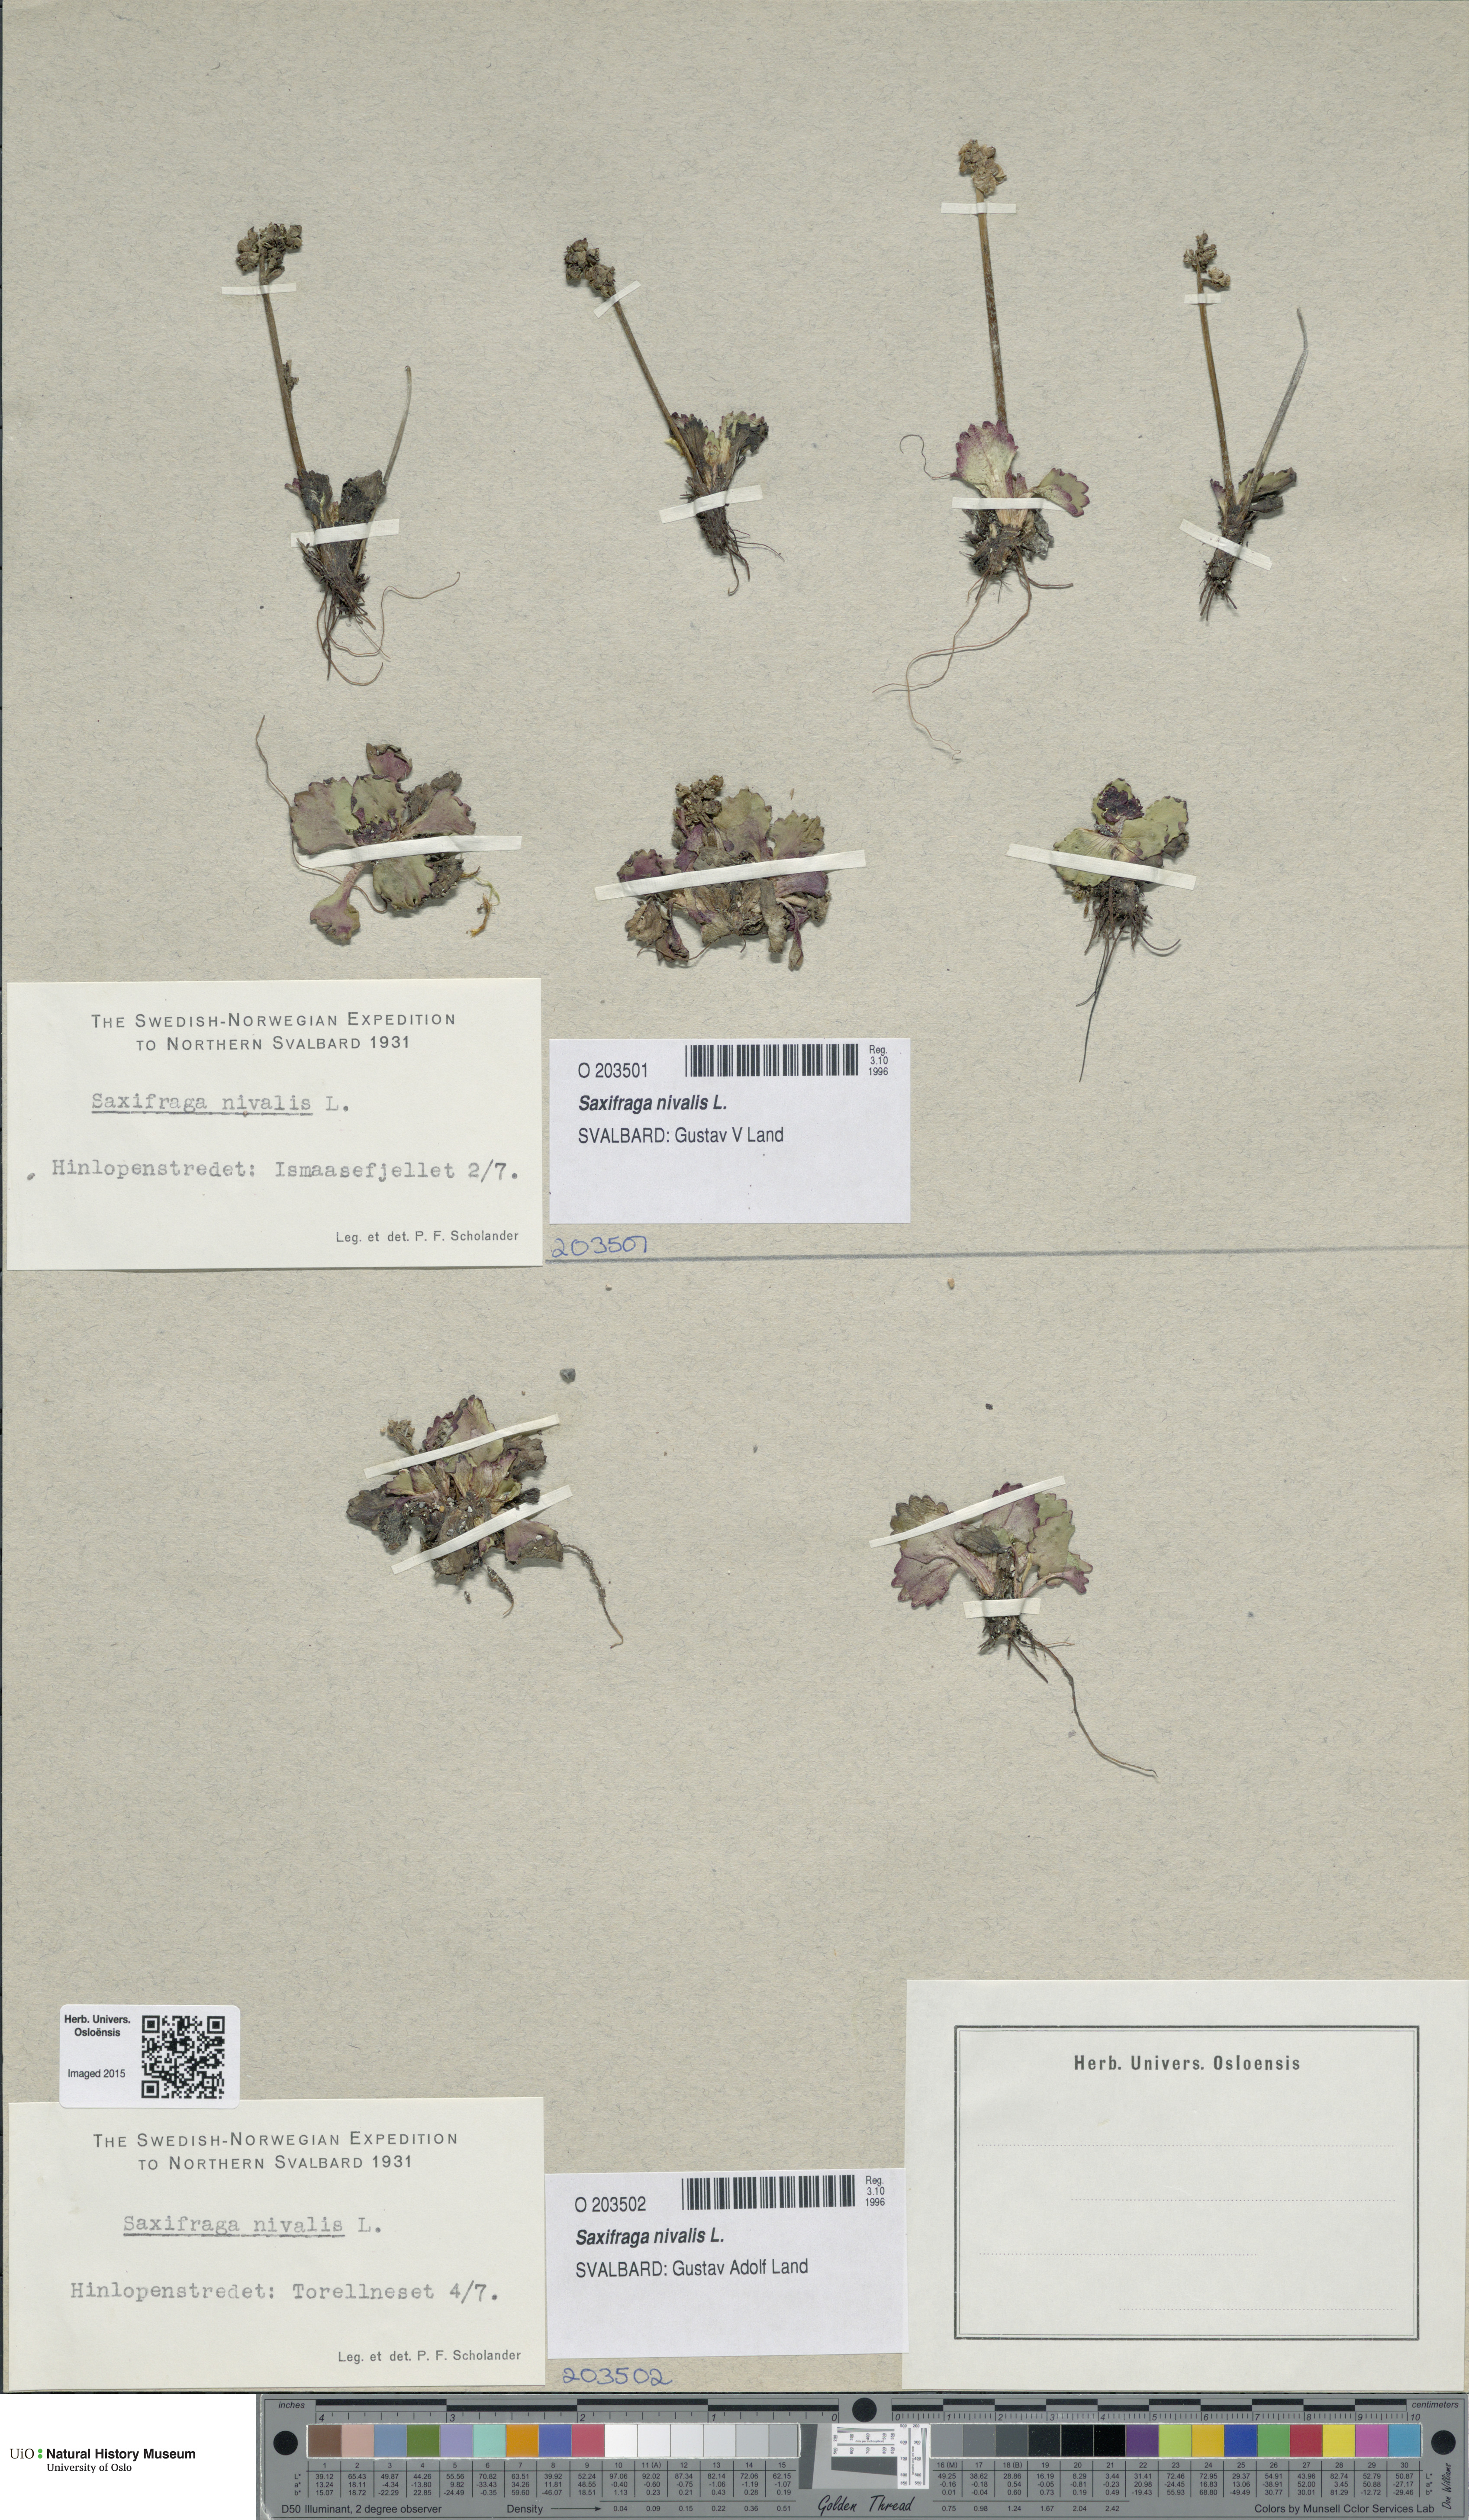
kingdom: Plantae
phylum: Tracheophyta
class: Magnoliopsida
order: Saxifragales
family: Saxifragaceae
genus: Micranthes
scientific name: Micranthes nivalis
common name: Alpine saxifrage
